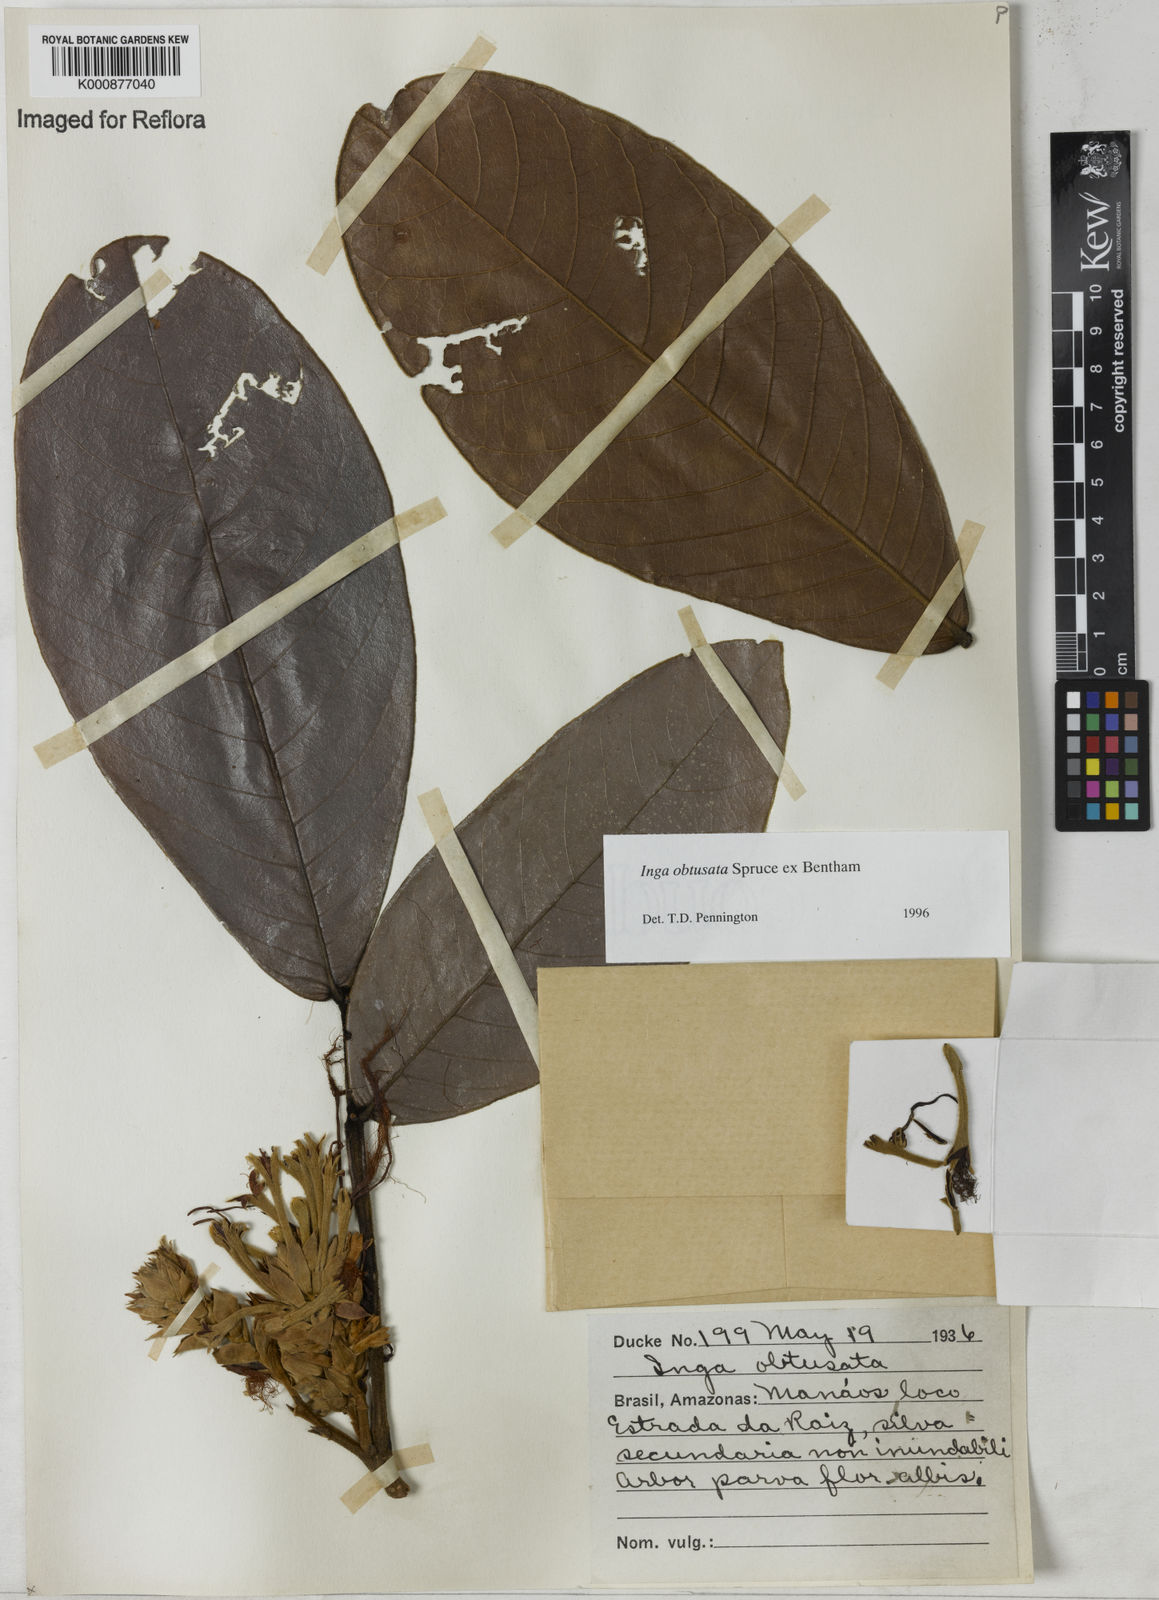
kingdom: Plantae
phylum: Tracheophyta
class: Magnoliopsida
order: Fabales
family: Fabaceae
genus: Inga
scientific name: Inga obtusata
